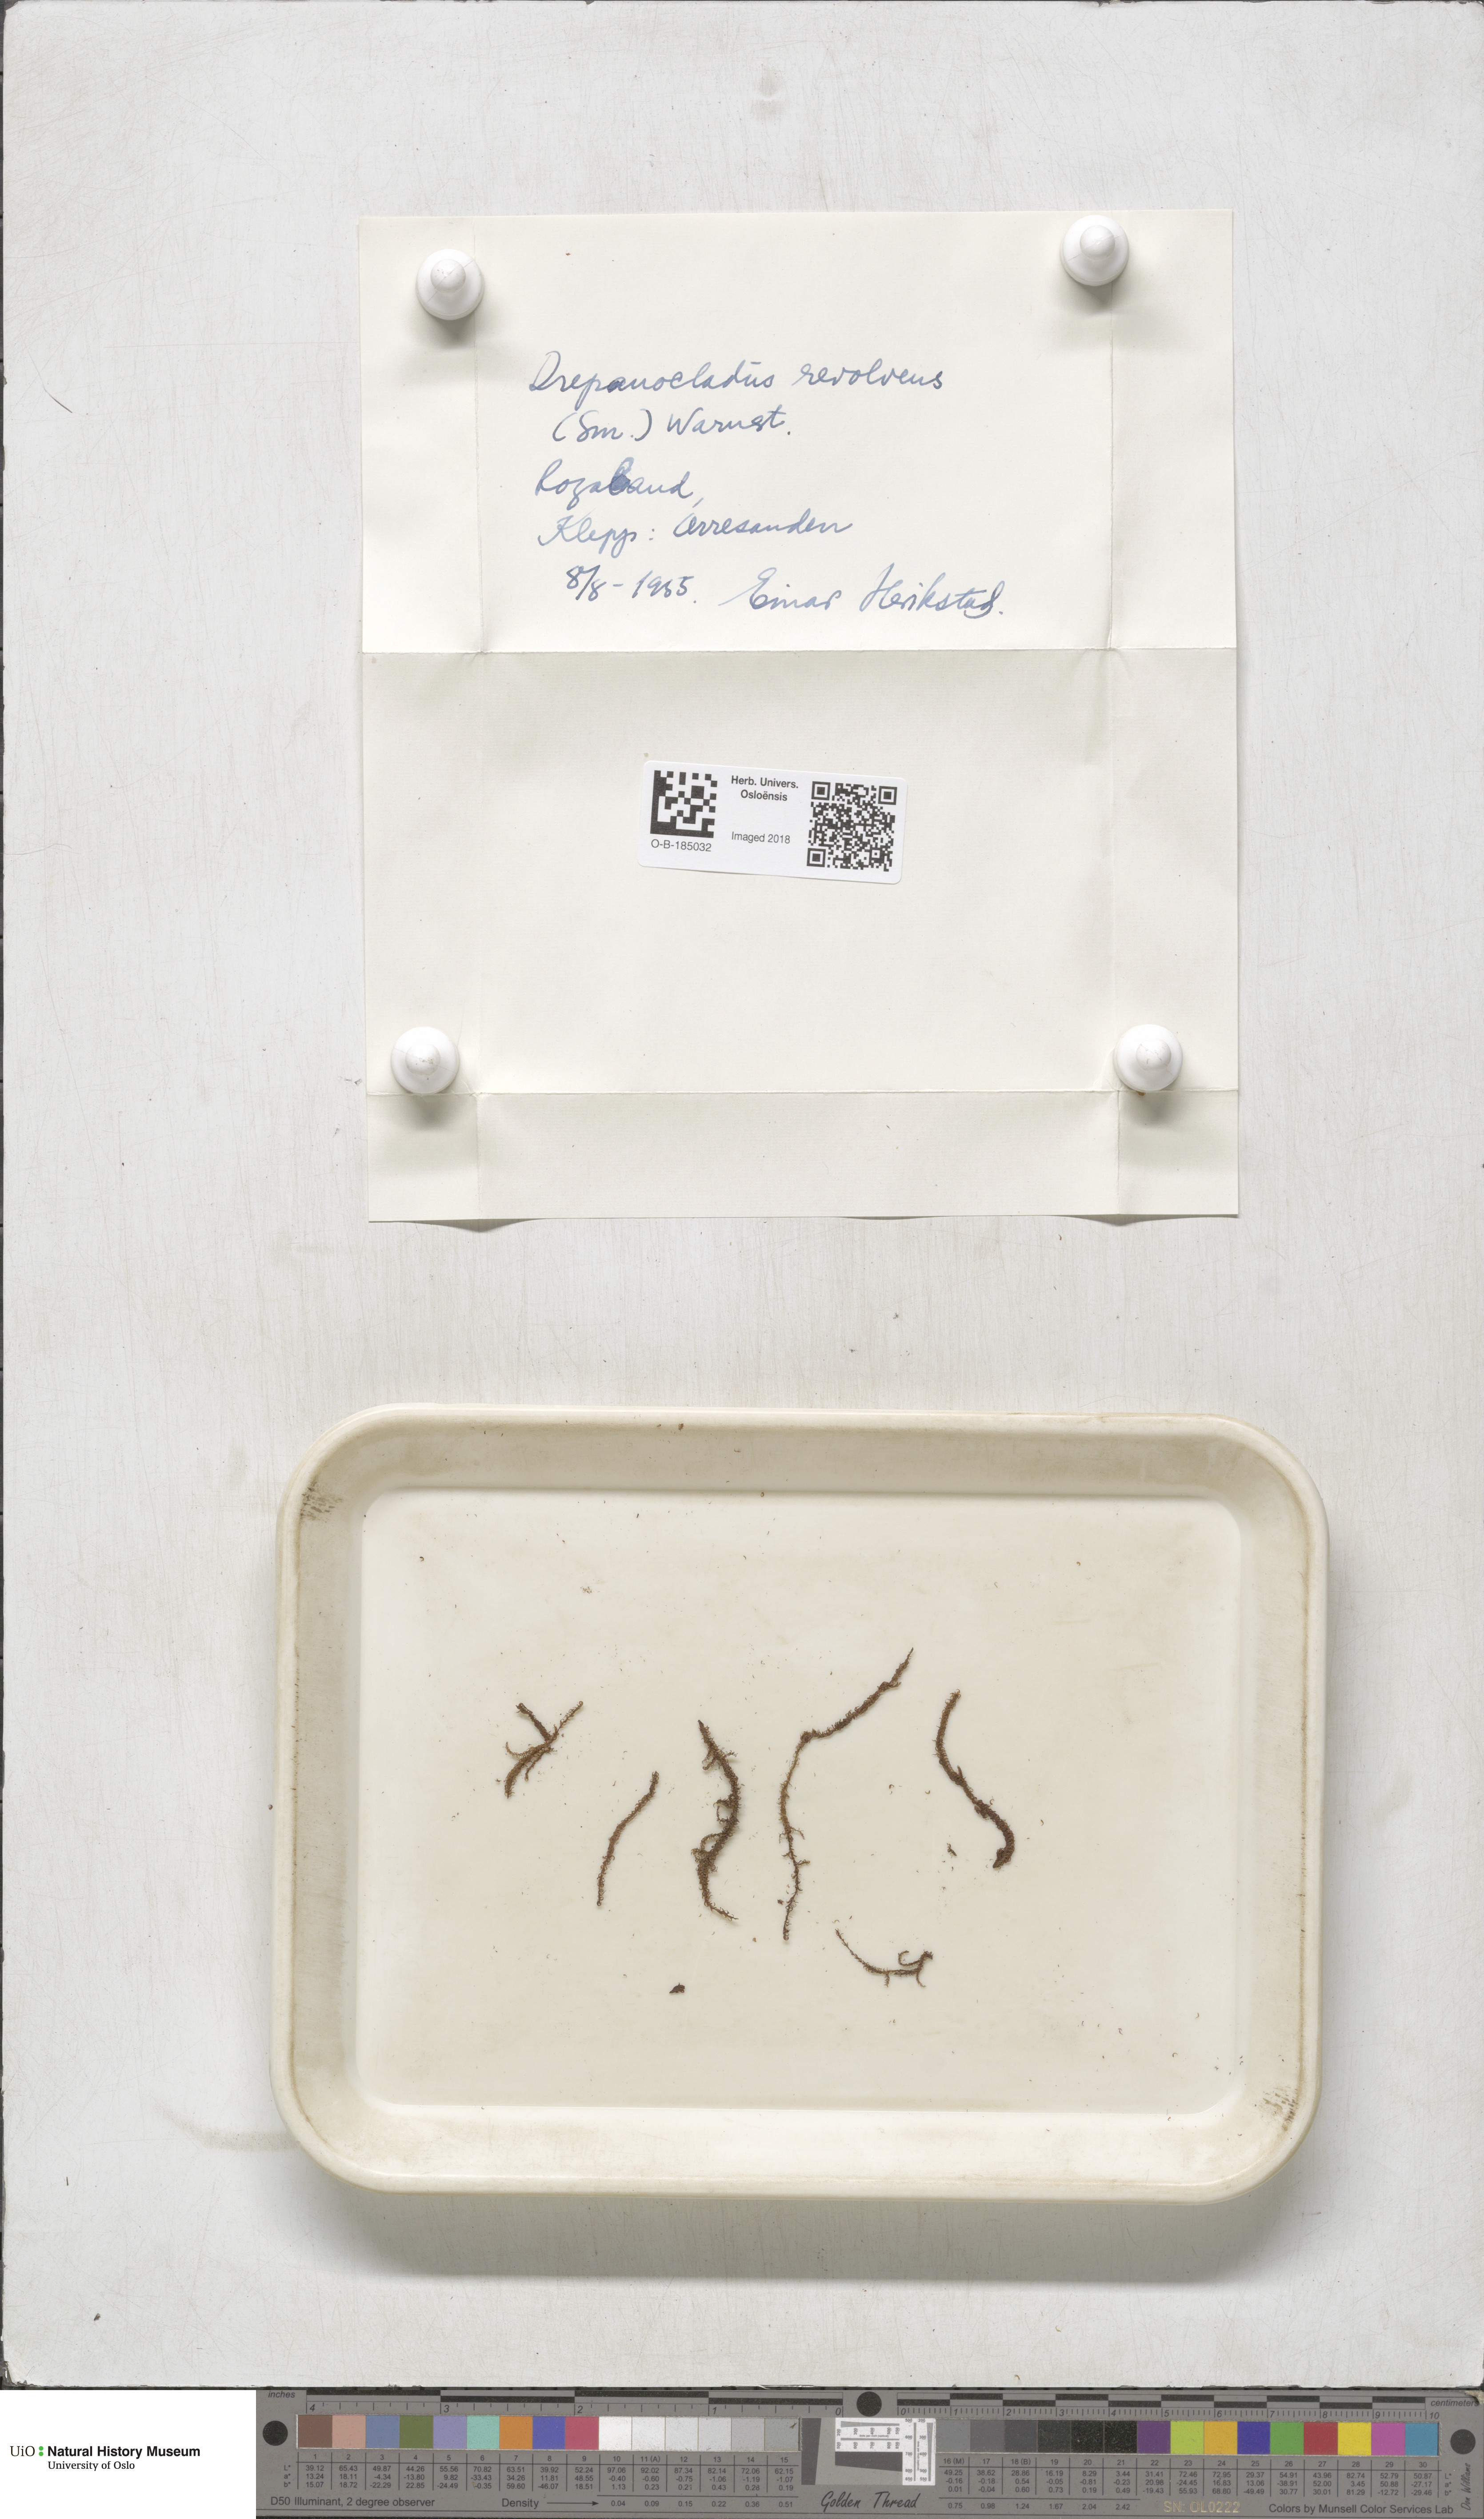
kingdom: Plantae
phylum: Bryophyta
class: Bryopsida
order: Hypnales
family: Scorpidiaceae
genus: Scorpidium
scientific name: Scorpidium revolvens
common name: Rusty hook moss
